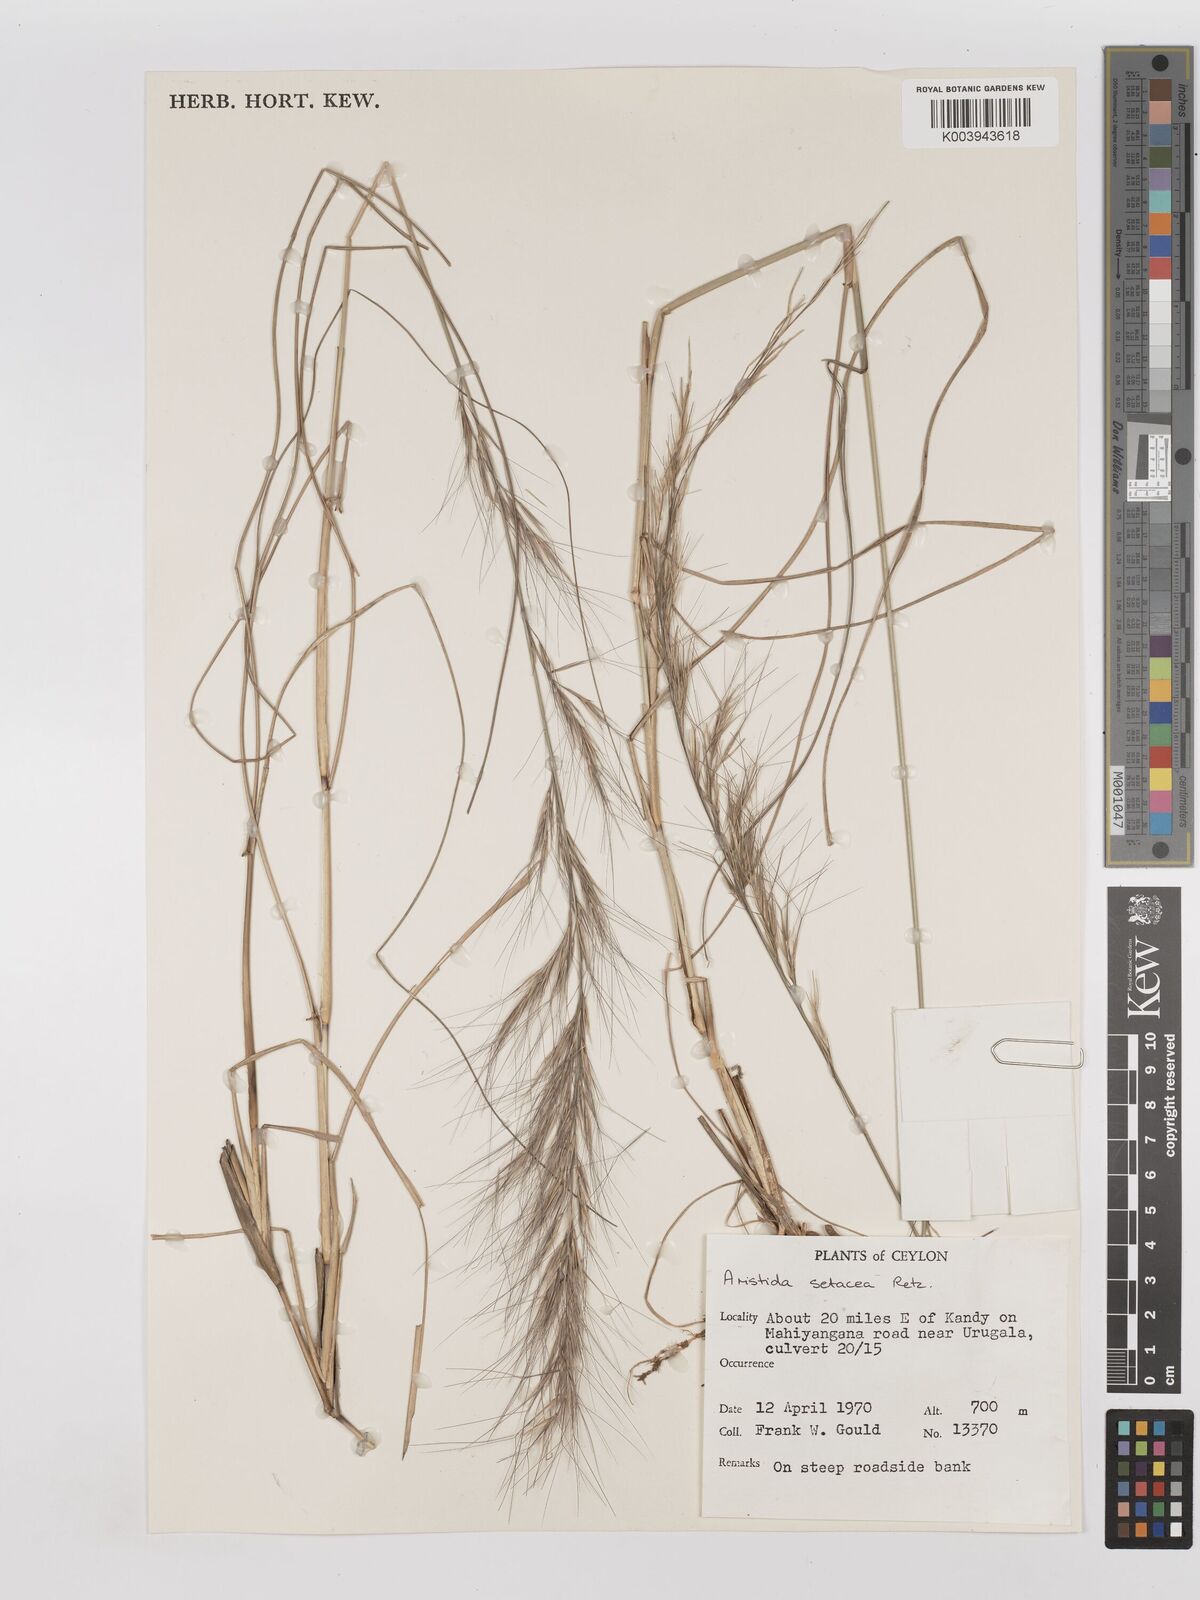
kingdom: Plantae
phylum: Tracheophyta
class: Liliopsida
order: Poales
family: Poaceae
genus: Aristida
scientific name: Aristida setacea
